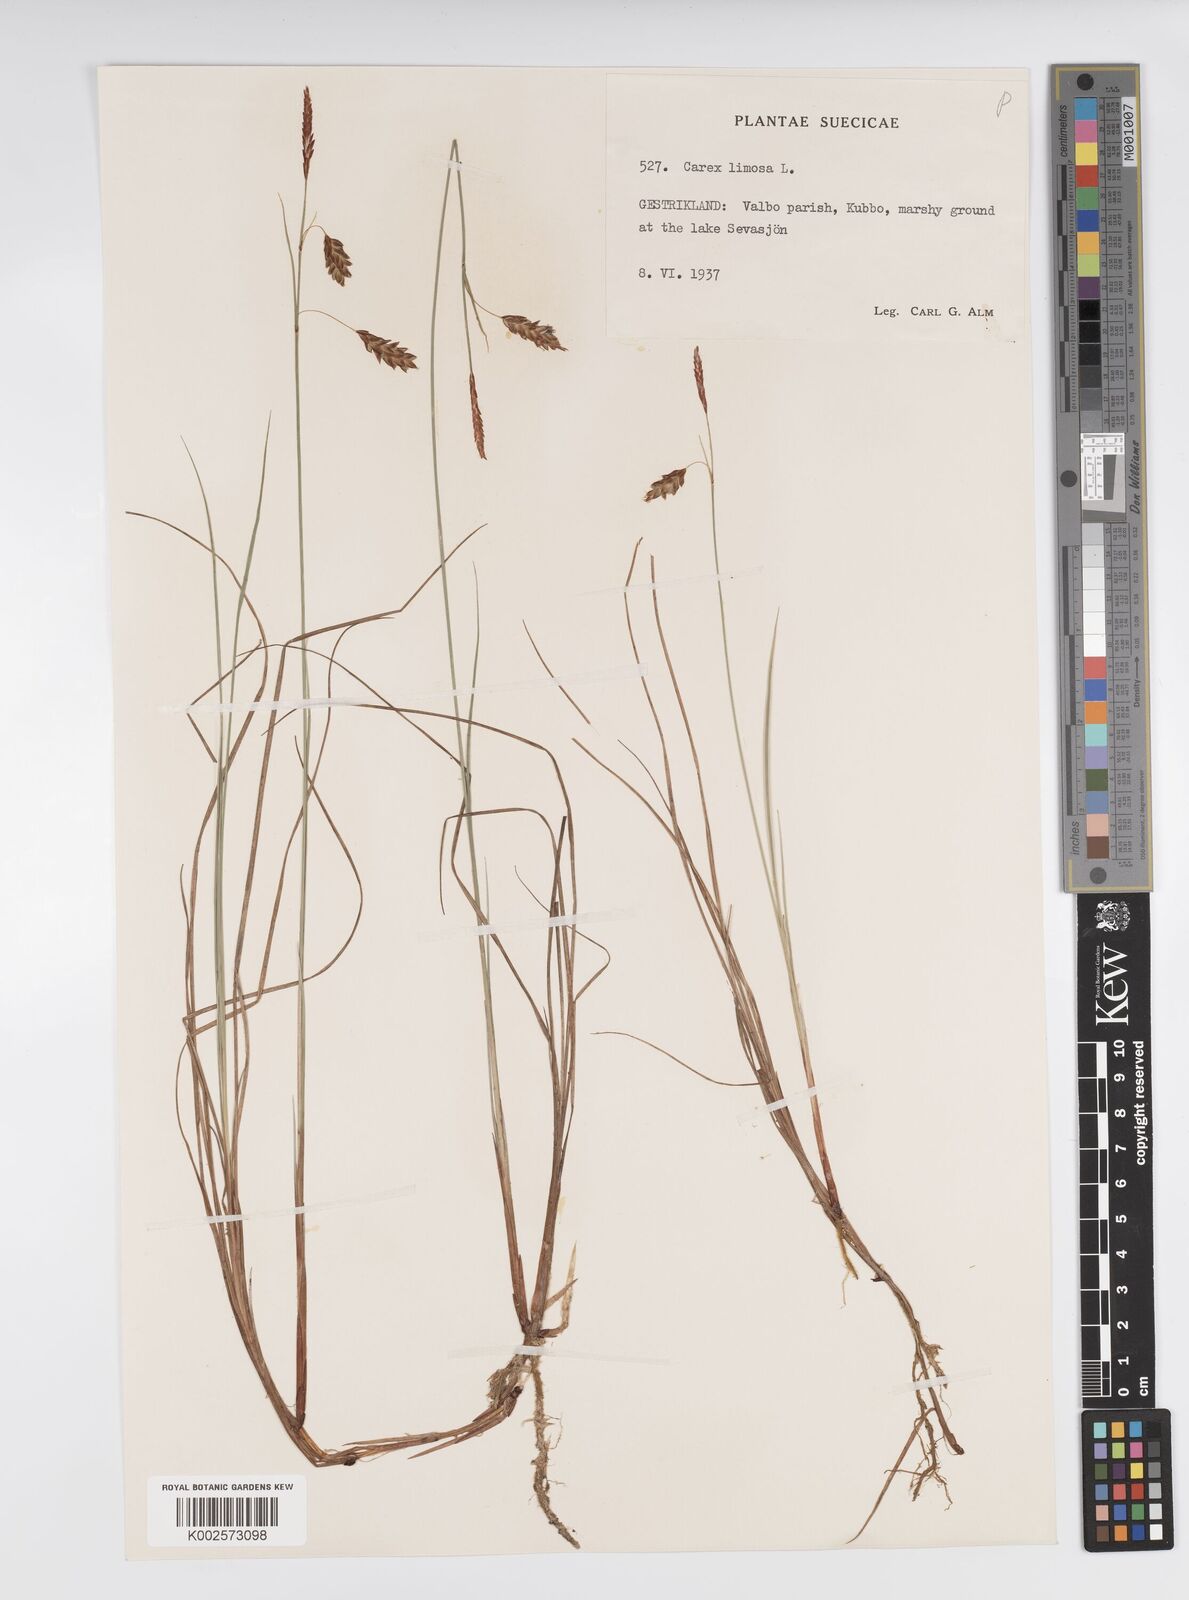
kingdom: Plantae
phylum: Tracheophyta
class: Liliopsida
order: Poales
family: Cyperaceae
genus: Carex
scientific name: Carex limosa
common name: Bog sedge
